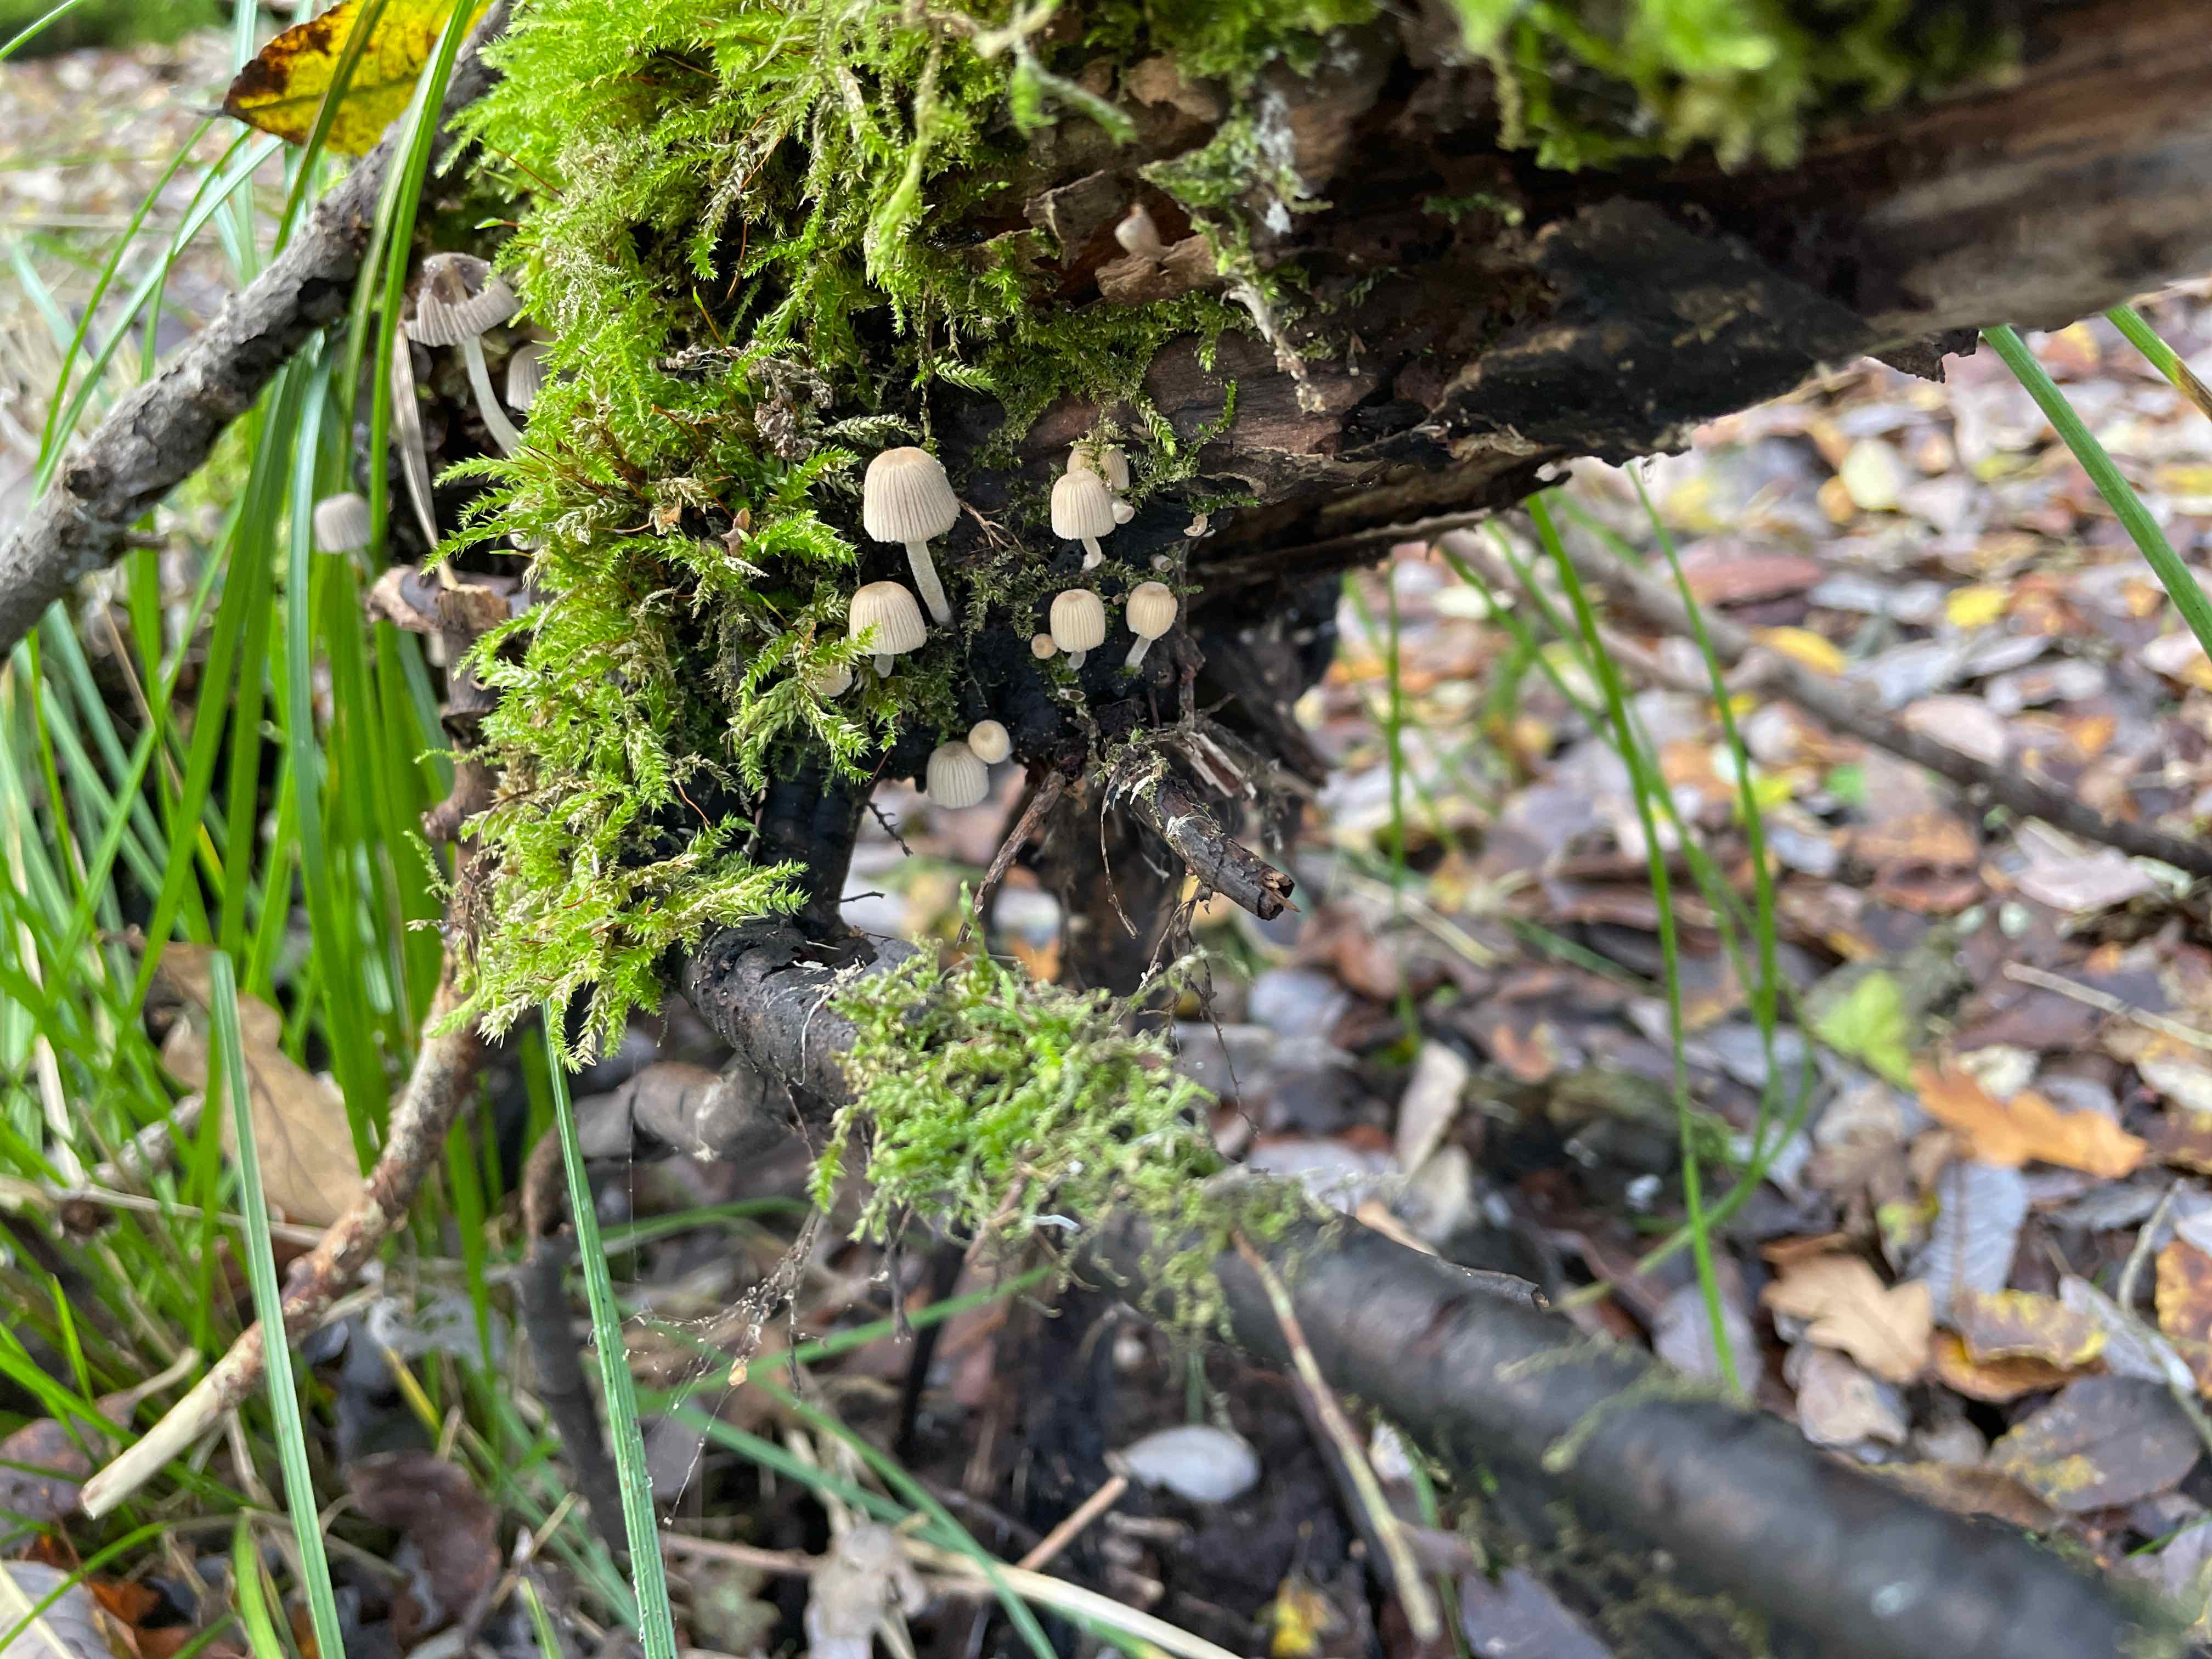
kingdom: Fungi
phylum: Basidiomycota
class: Agaricomycetes
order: Agaricales
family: Psathyrellaceae
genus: Coprinellus
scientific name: Coprinellus disseminatus
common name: bredsået blækhat
